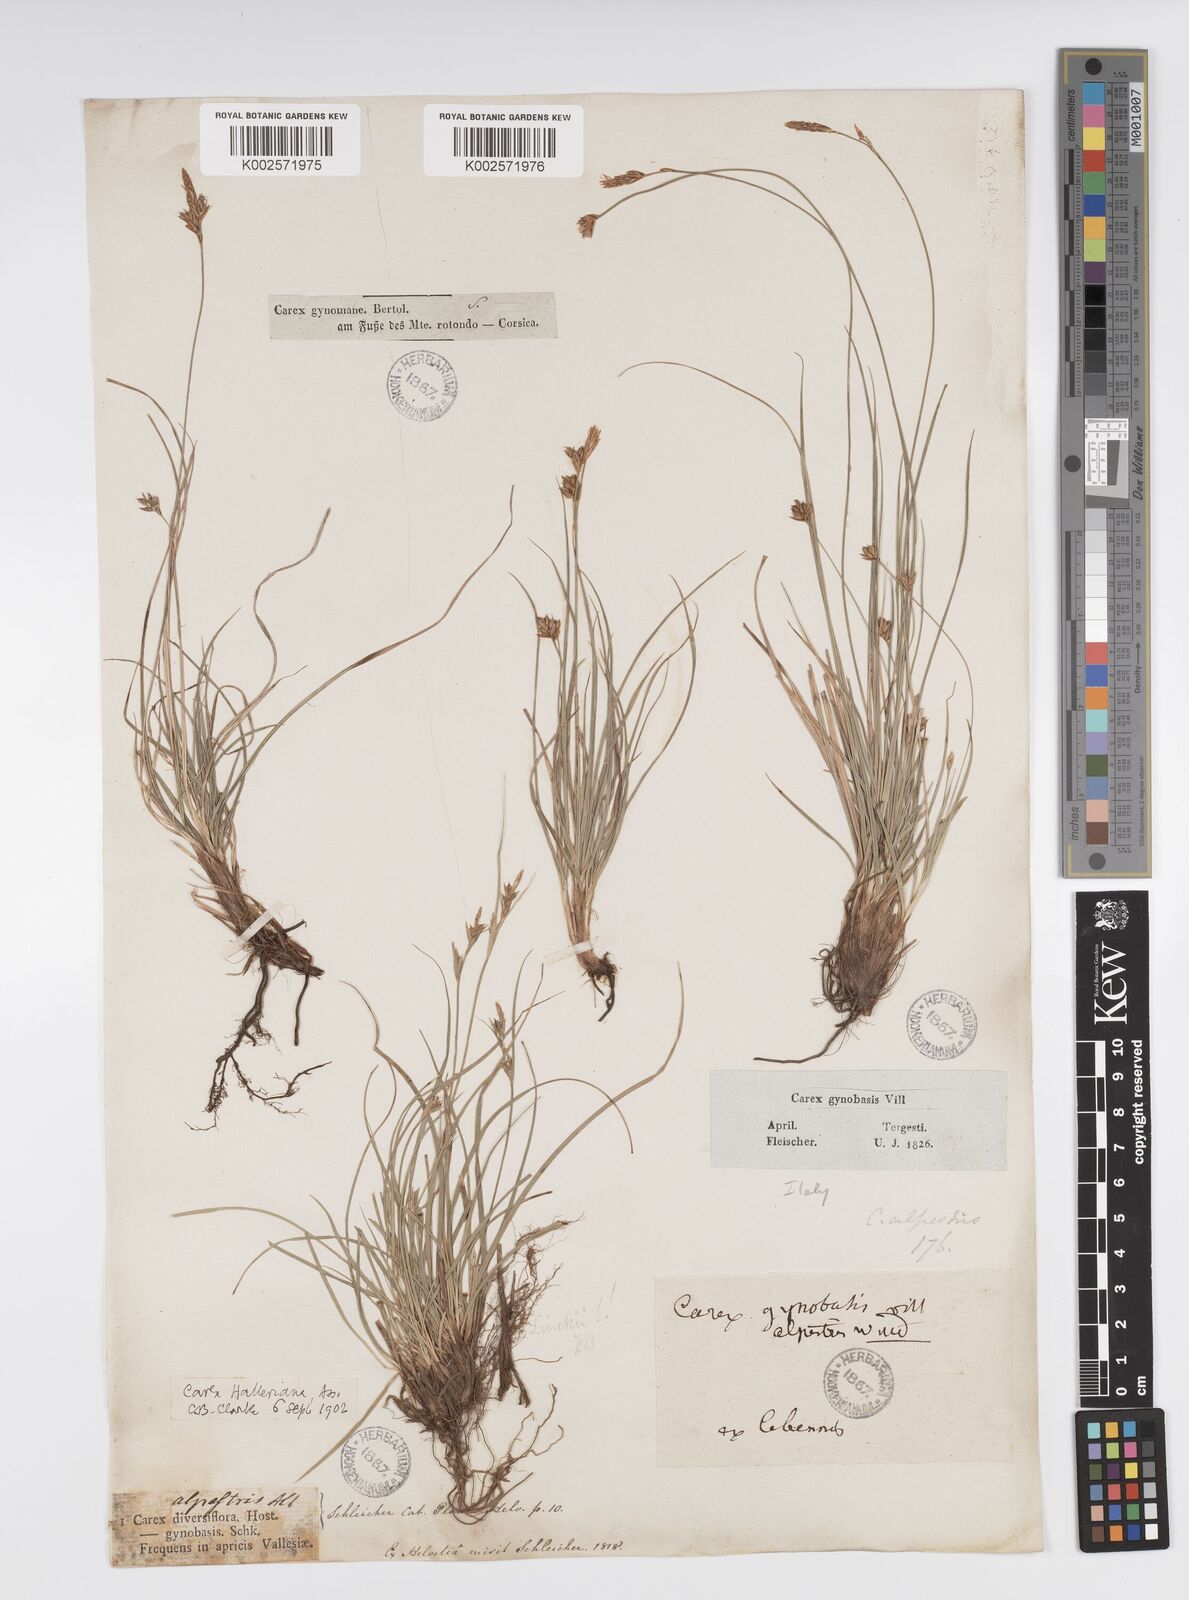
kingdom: Plantae
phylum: Tracheophyta
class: Liliopsida
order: Poales
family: Cyperaceae
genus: Carex
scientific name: Carex halleriana
